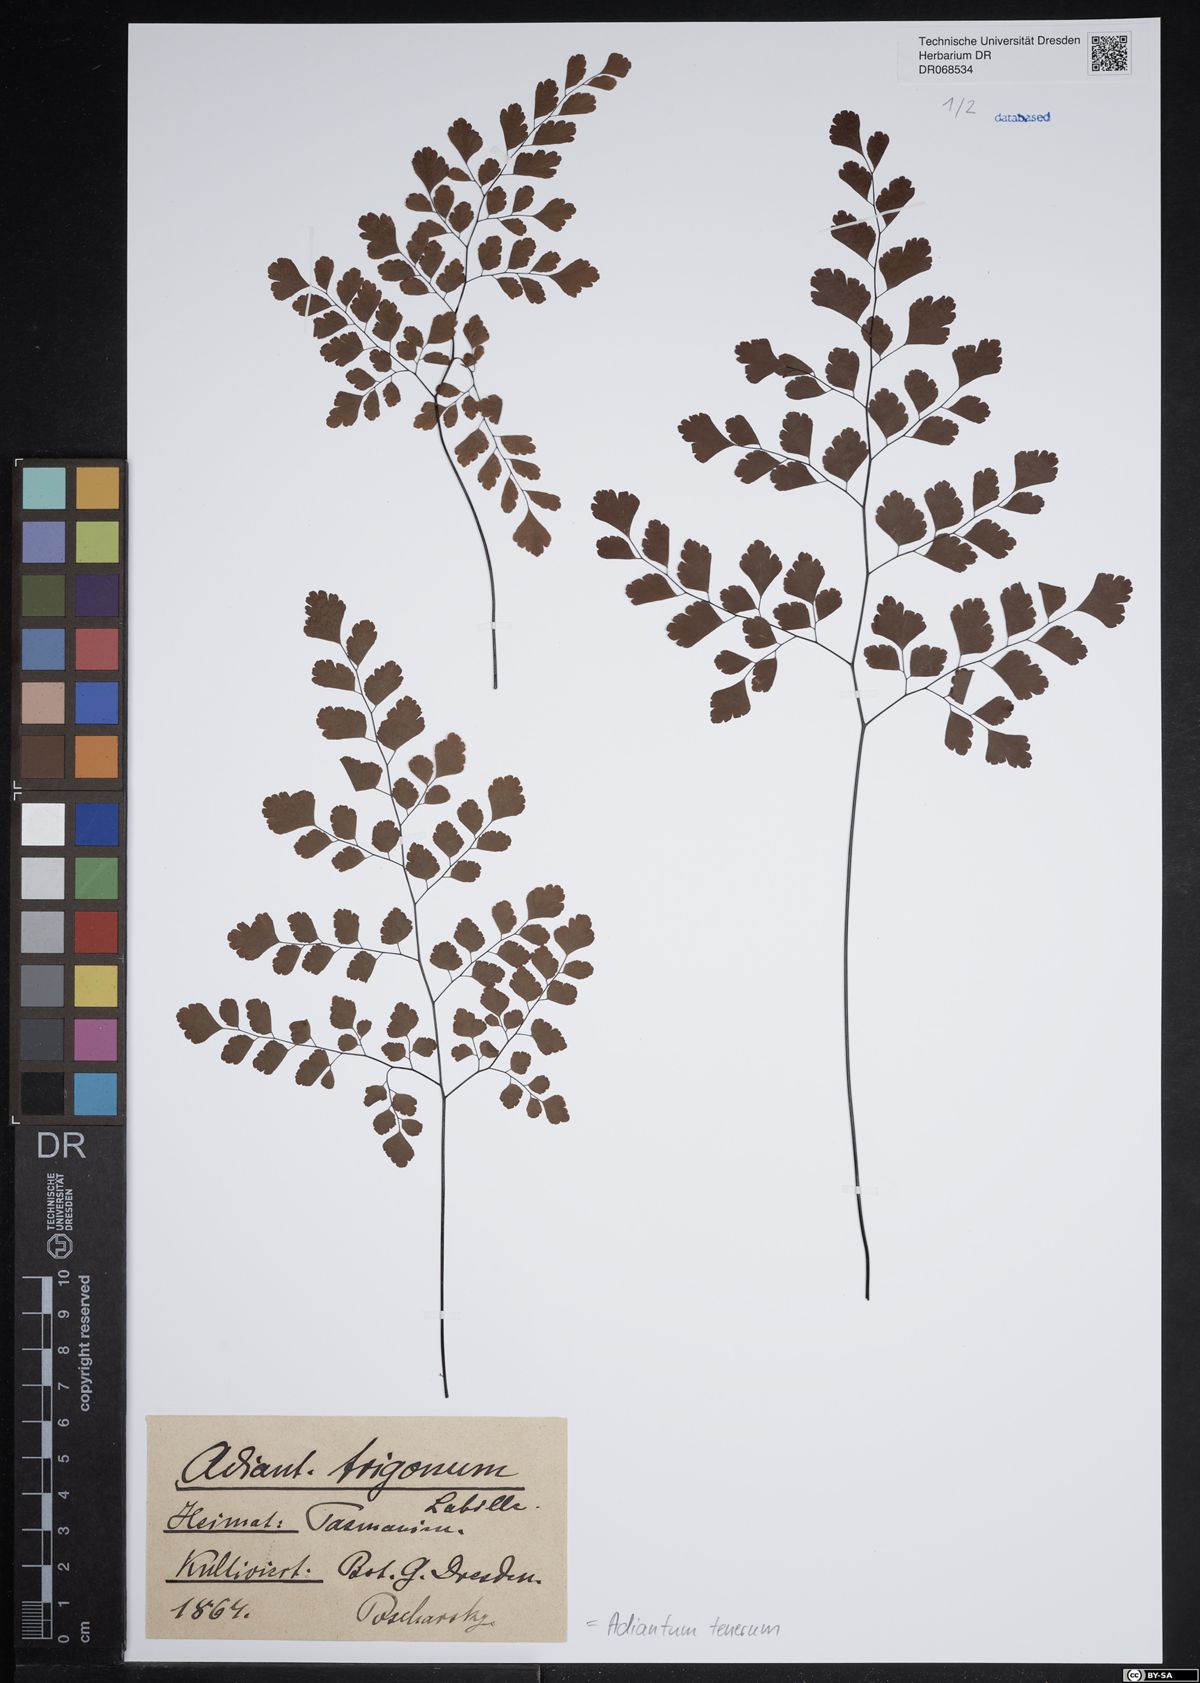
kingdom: Plantae
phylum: Tracheophyta
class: Polypodiopsida
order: Polypodiales
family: Pteridaceae
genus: Adiantum
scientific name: Adiantum tenerum
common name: Fan maidenhair
